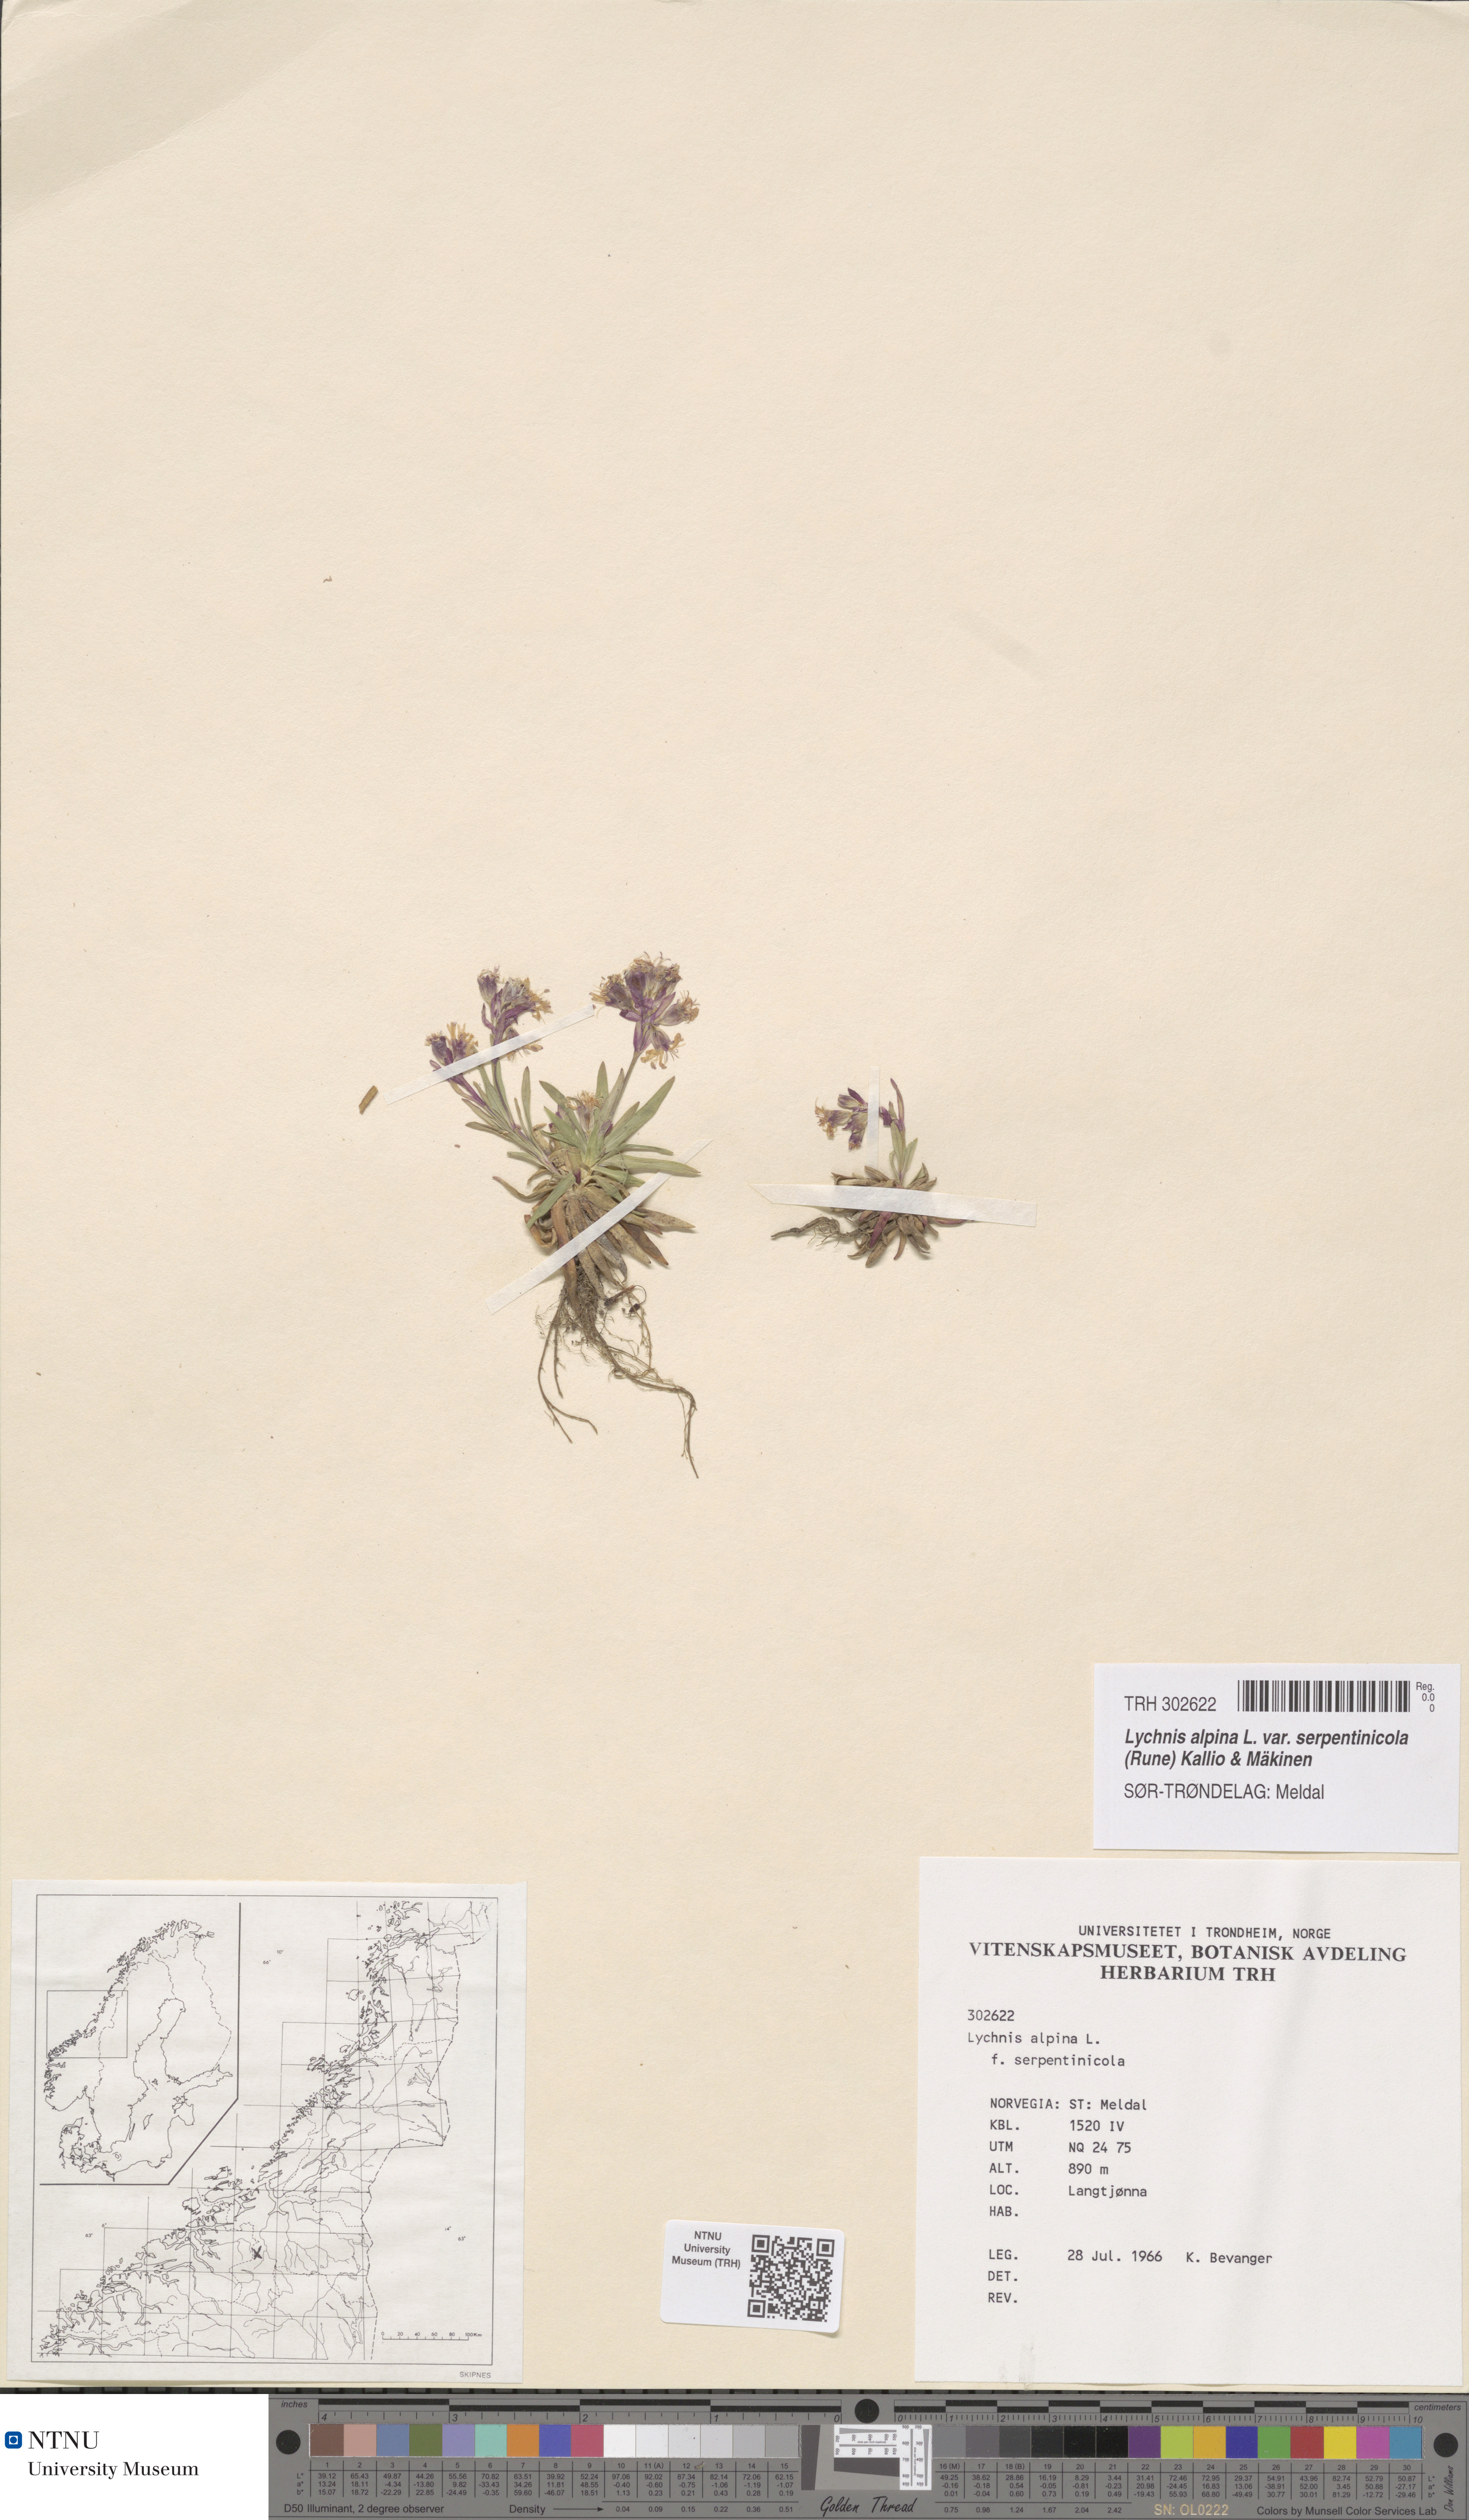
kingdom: Plantae
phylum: Tracheophyta
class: Magnoliopsida
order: Caryophyllales
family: Caryophyllaceae
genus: Viscaria
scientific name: Viscaria alpina
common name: Alpine campion
